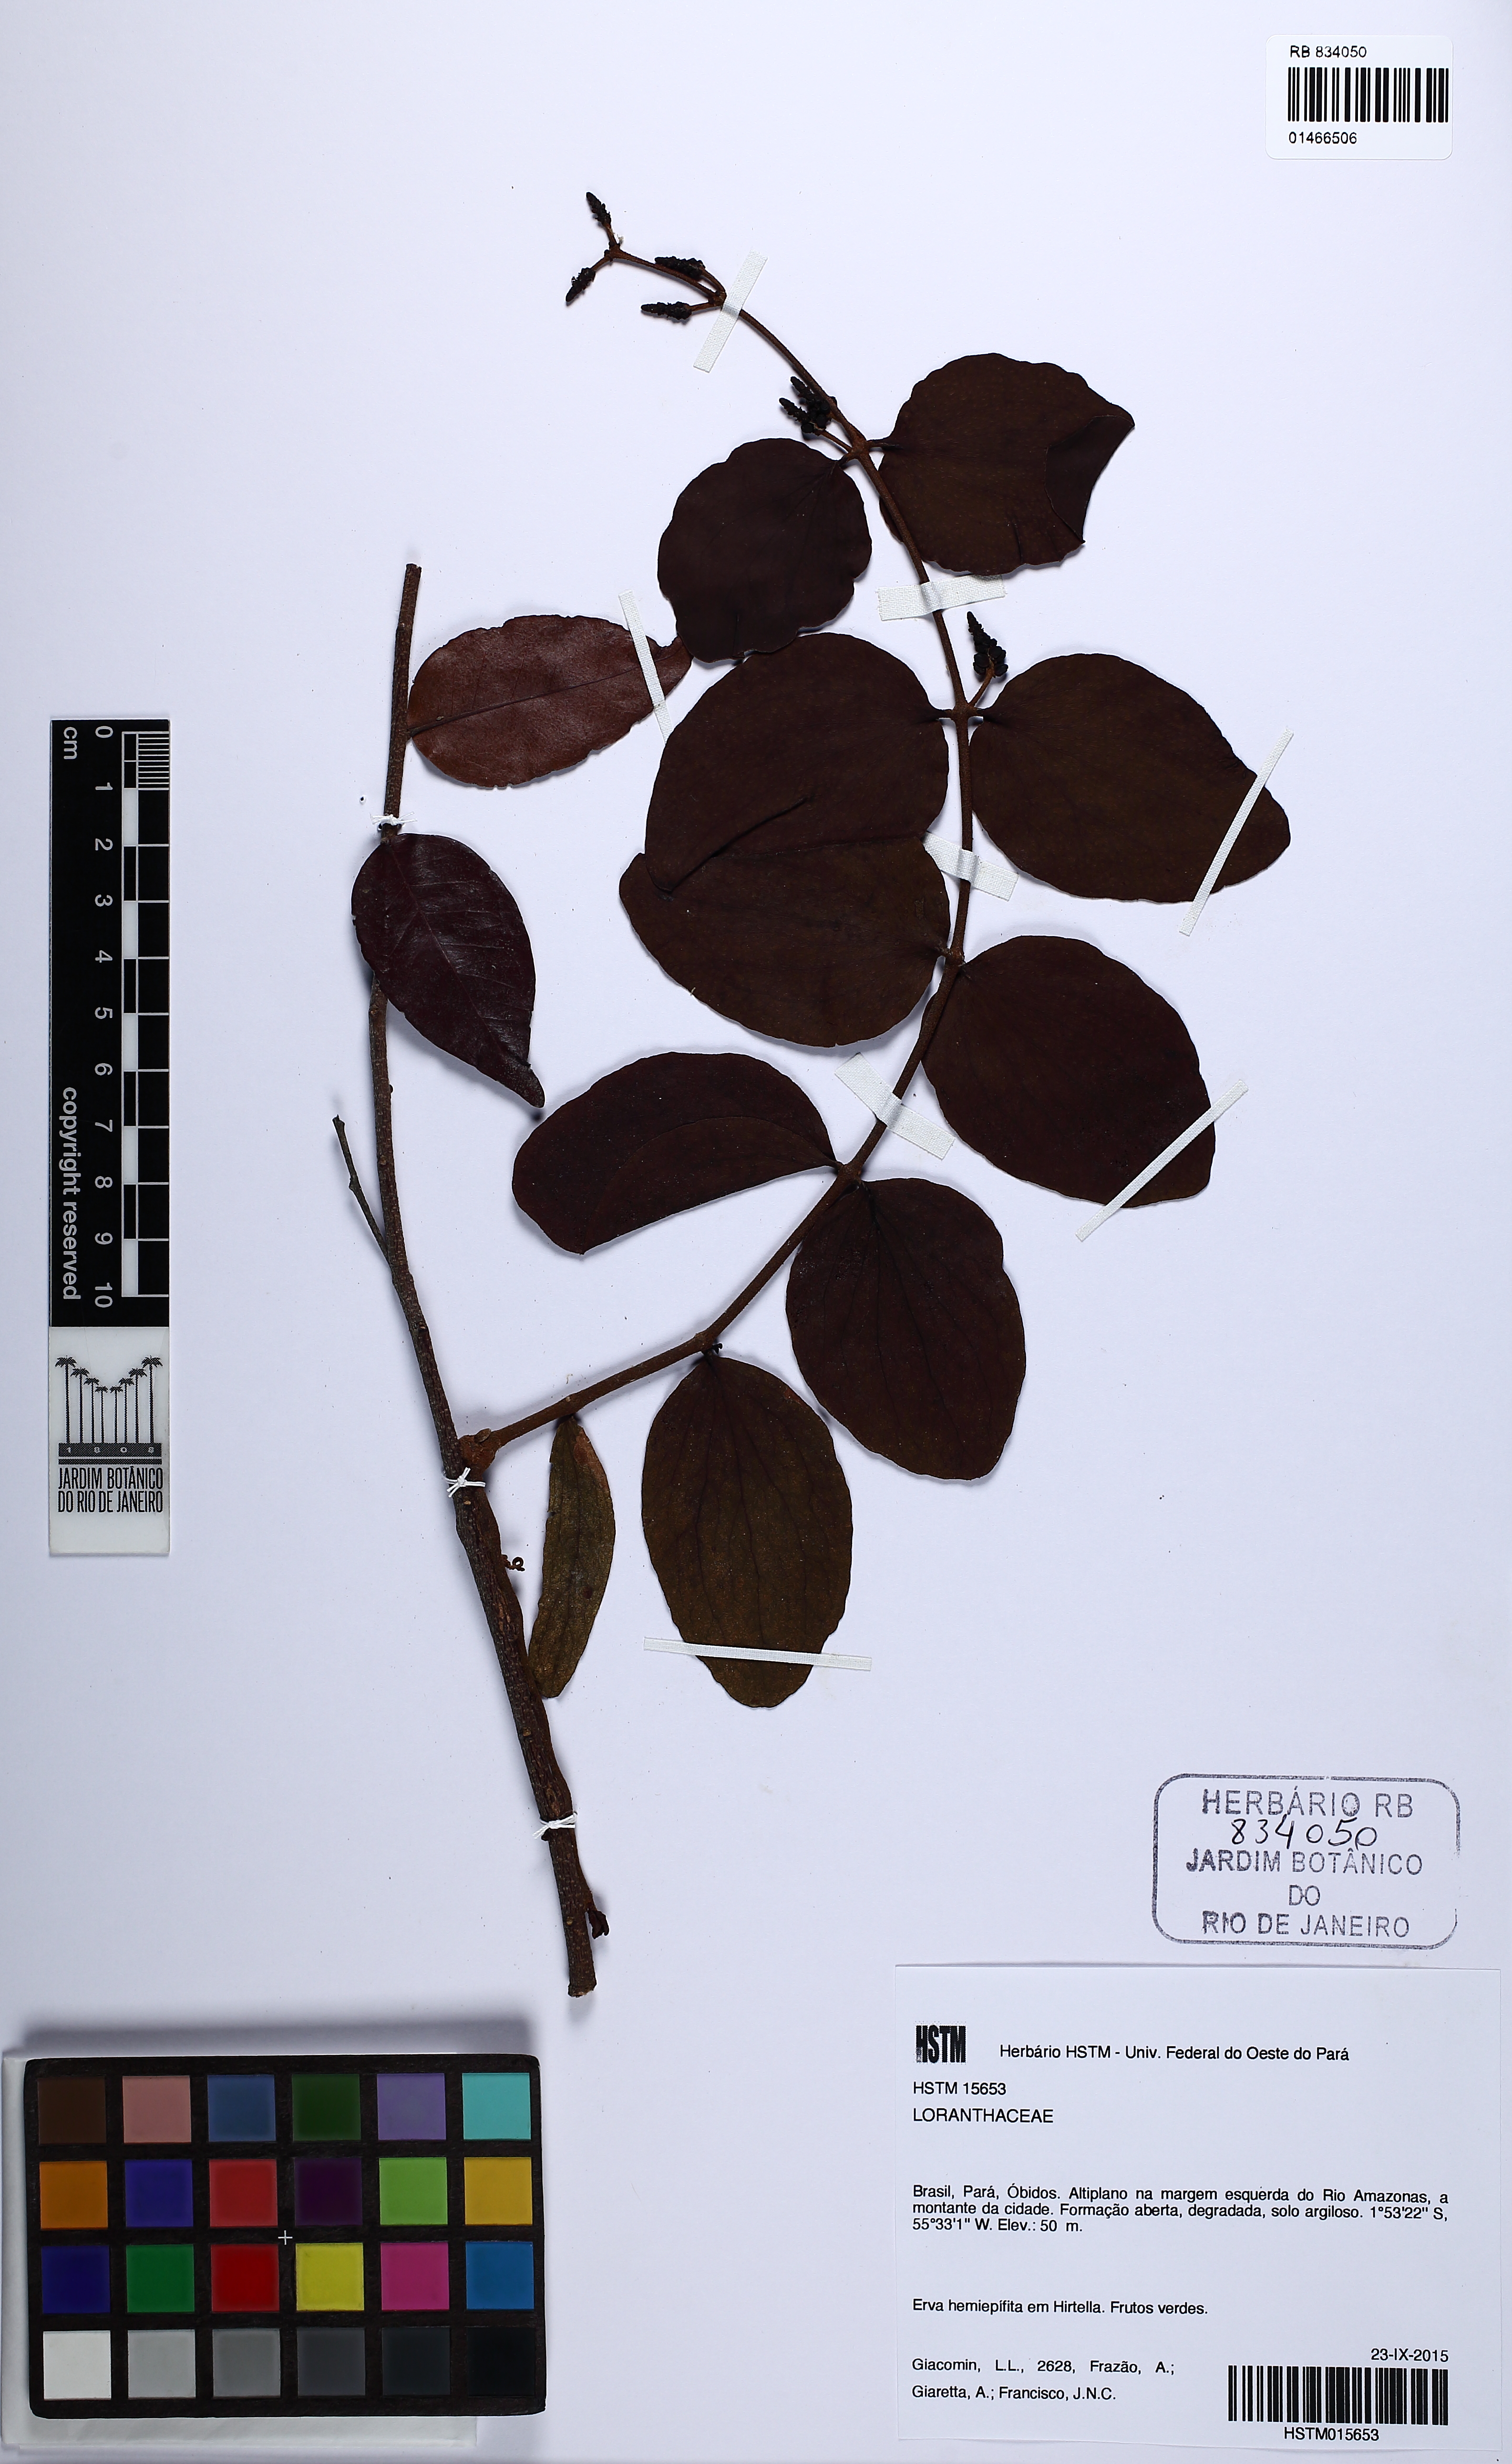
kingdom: Plantae
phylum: Tracheophyta
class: Magnoliopsida
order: Santalales
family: Loranthaceae
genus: Oryctanthus
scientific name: Oryctanthus spicatus
